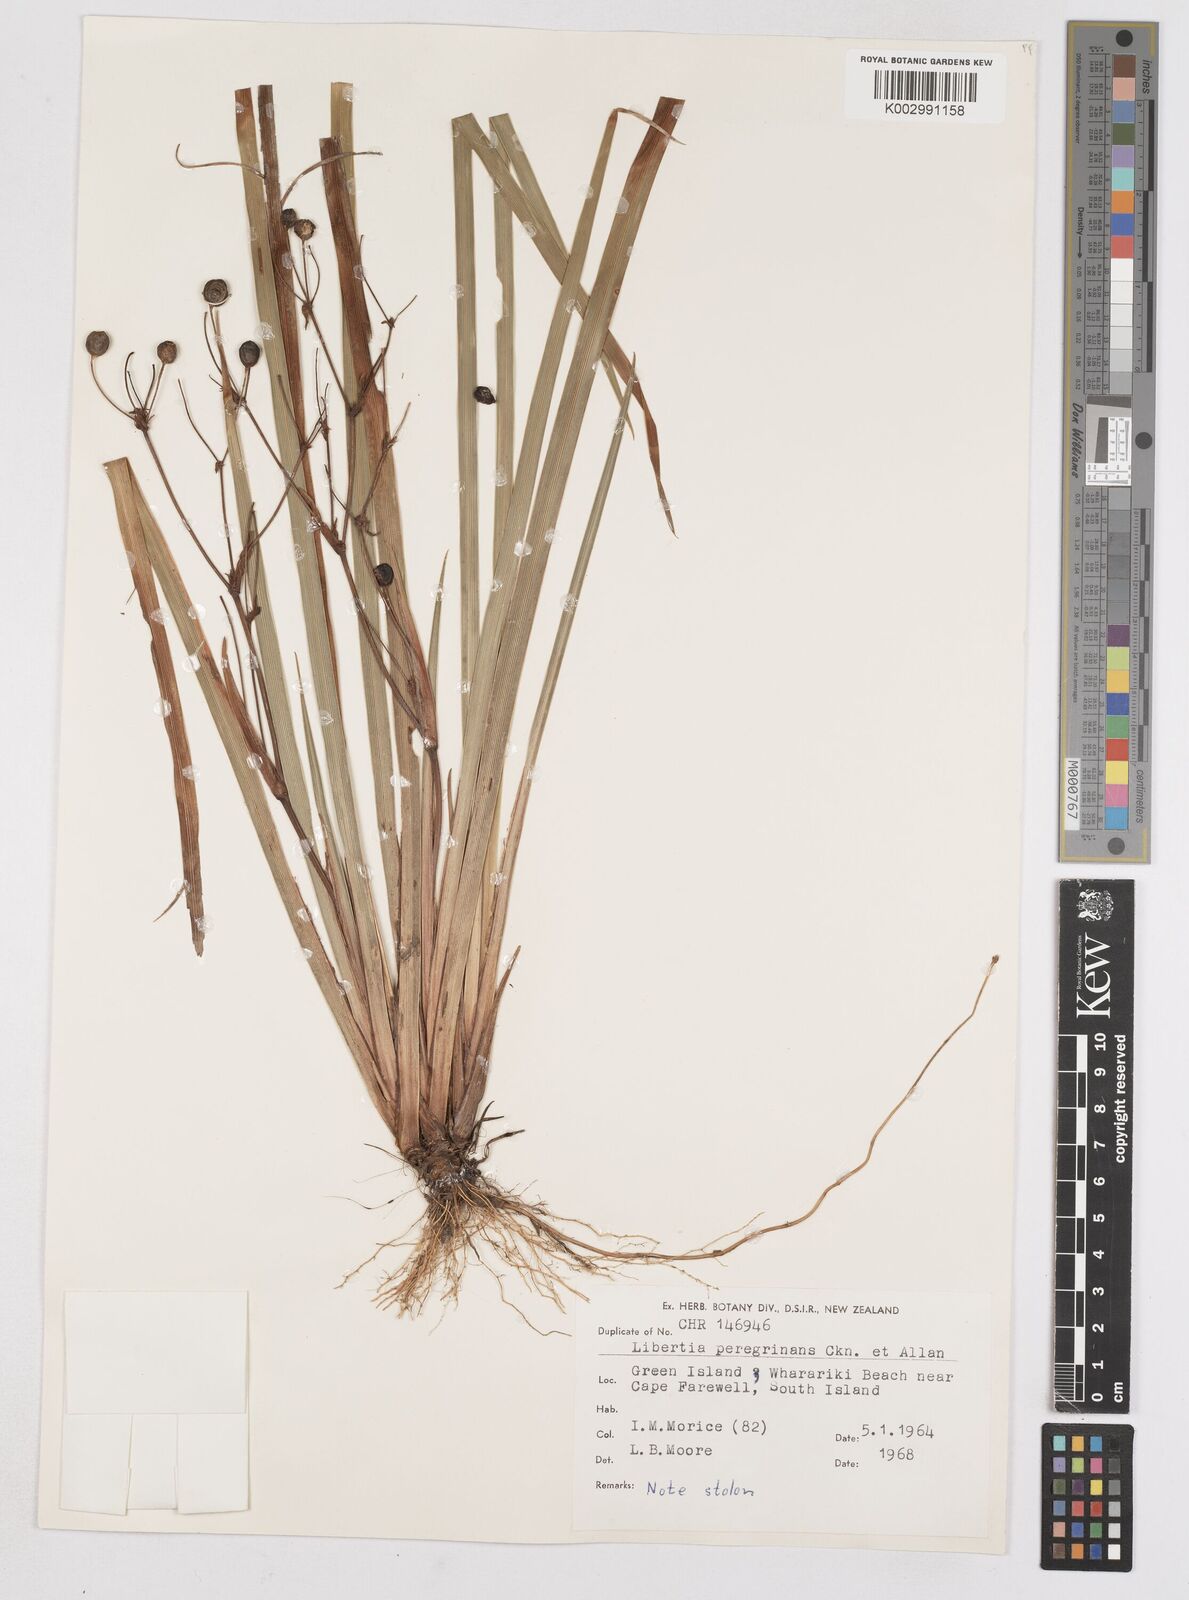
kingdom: Plantae
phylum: Tracheophyta
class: Liliopsida
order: Asparagales
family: Iridaceae
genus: Libertia
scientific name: Libertia peregrinans
